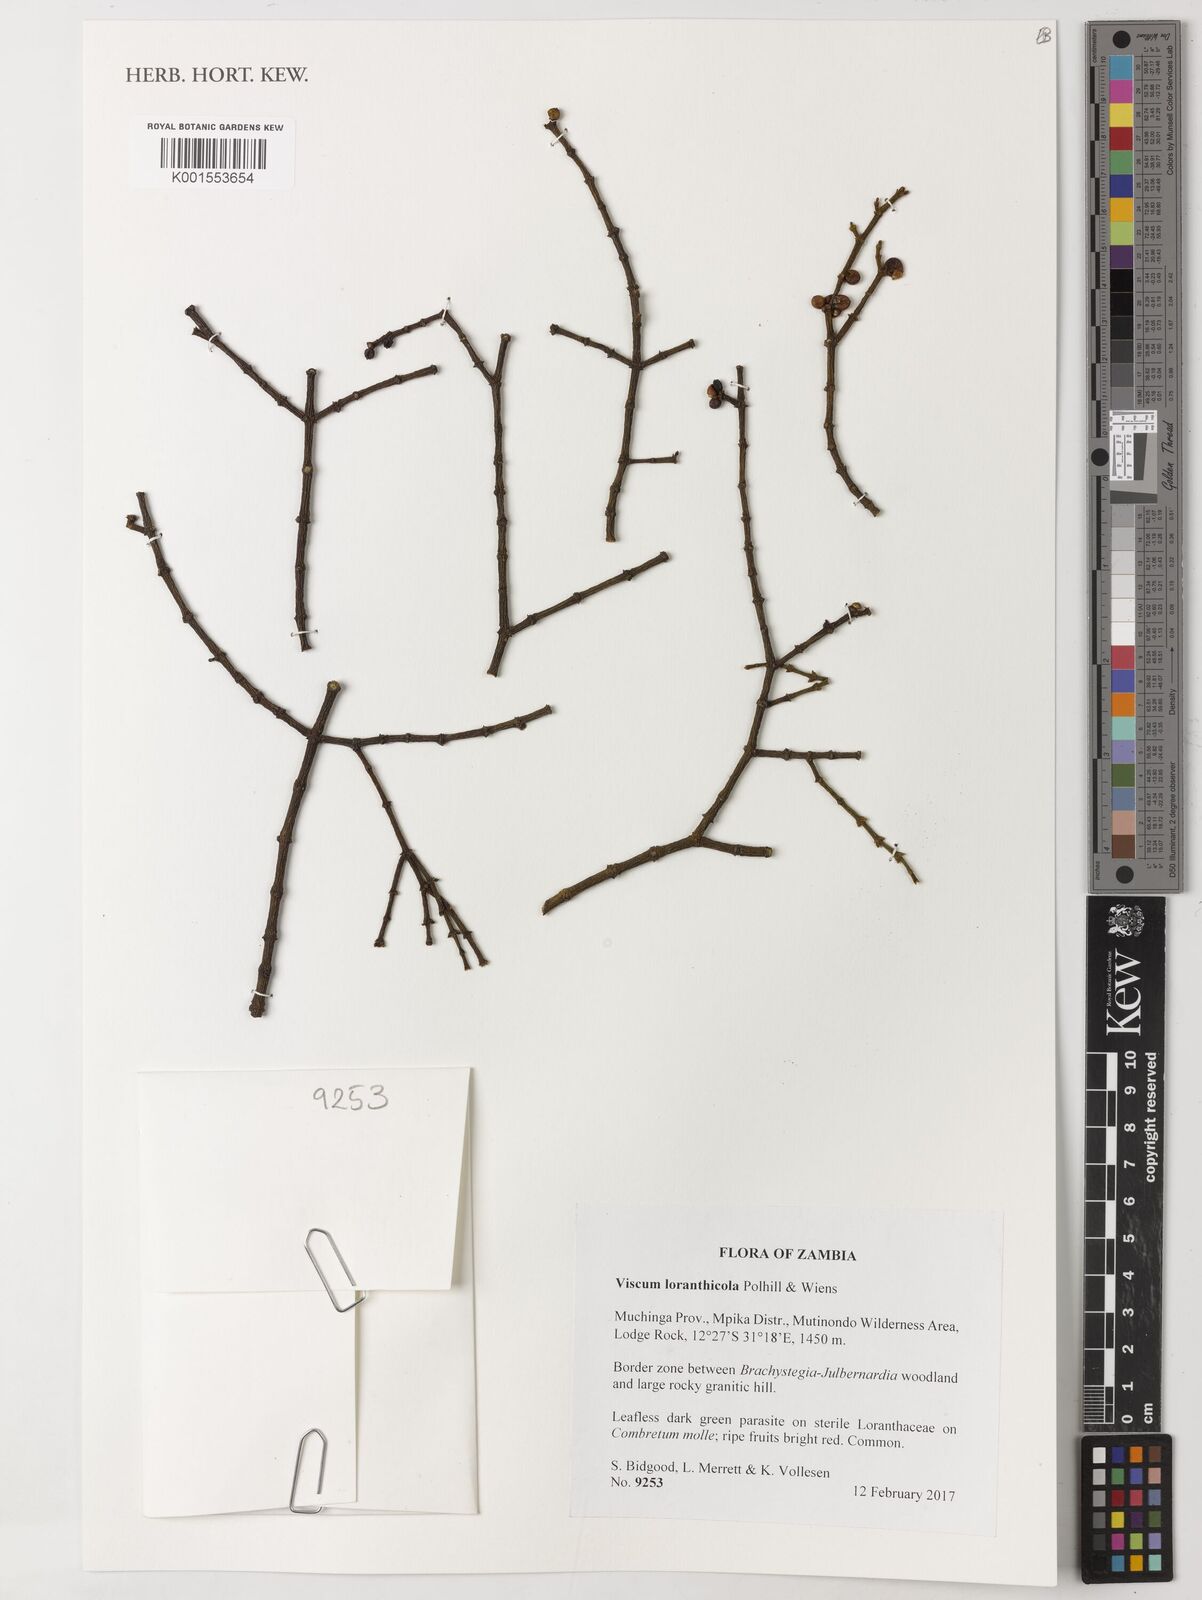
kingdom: Plantae
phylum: Tracheophyta
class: Magnoliopsida
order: Santalales
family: Viscaceae
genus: Viscum
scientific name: Viscum loranthicola
